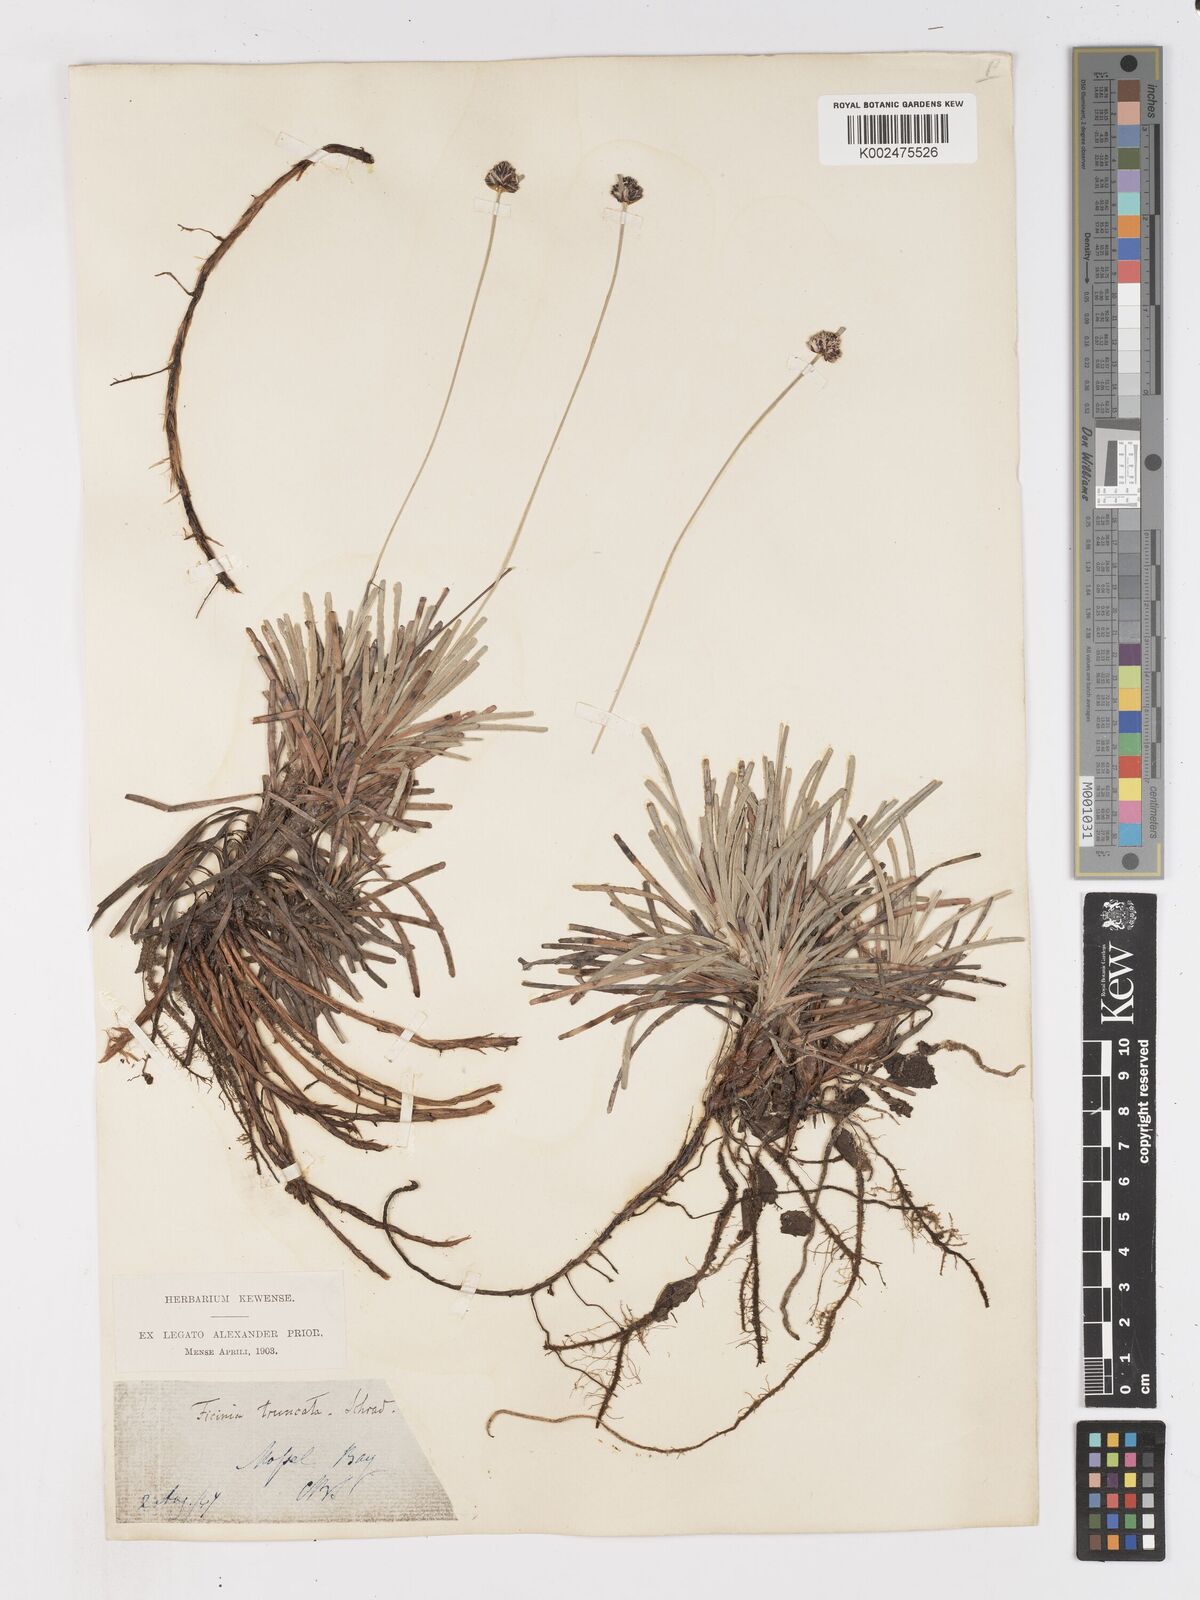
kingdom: Plantae
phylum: Tracheophyta
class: Liliopsida
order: Poales
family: Cyperaceae
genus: Ficinia
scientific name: Ficinia truncata
